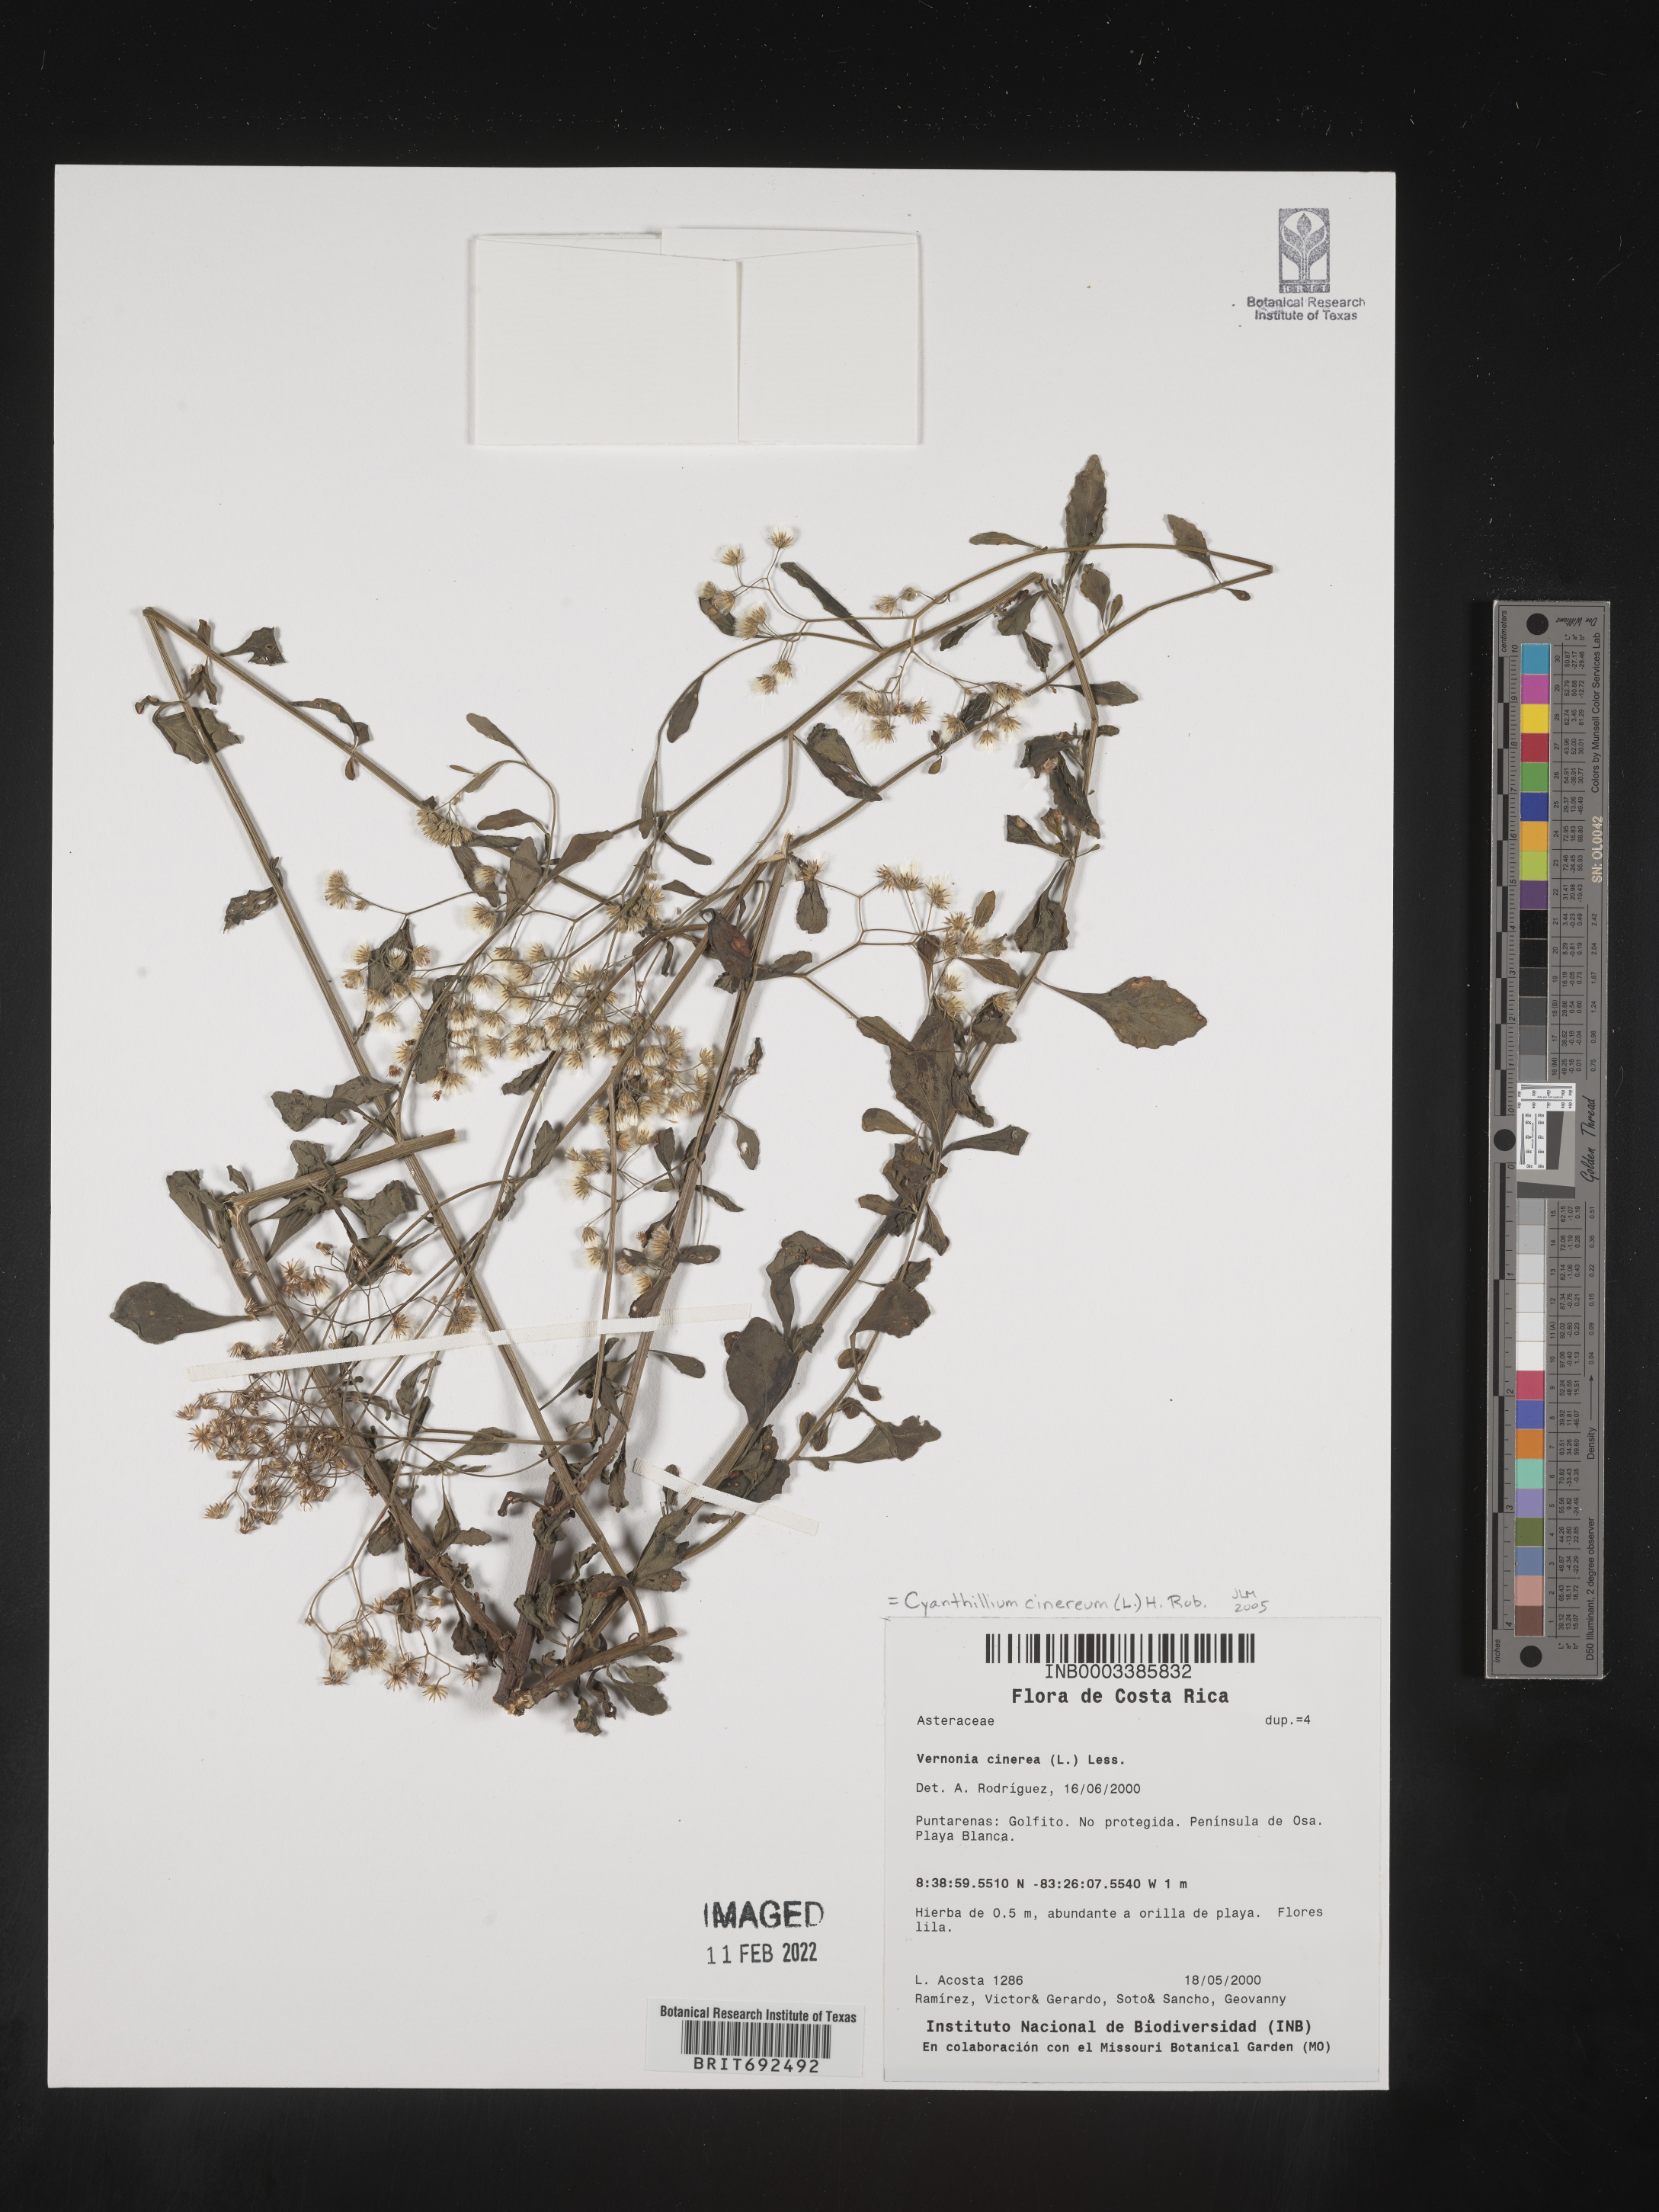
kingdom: Plantae
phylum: Tracheophyta
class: Magnoliopsida
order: Asterales
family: Asteraceae
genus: Cyanthillium
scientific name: Cyanthillium cinereum
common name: Little ironweed
